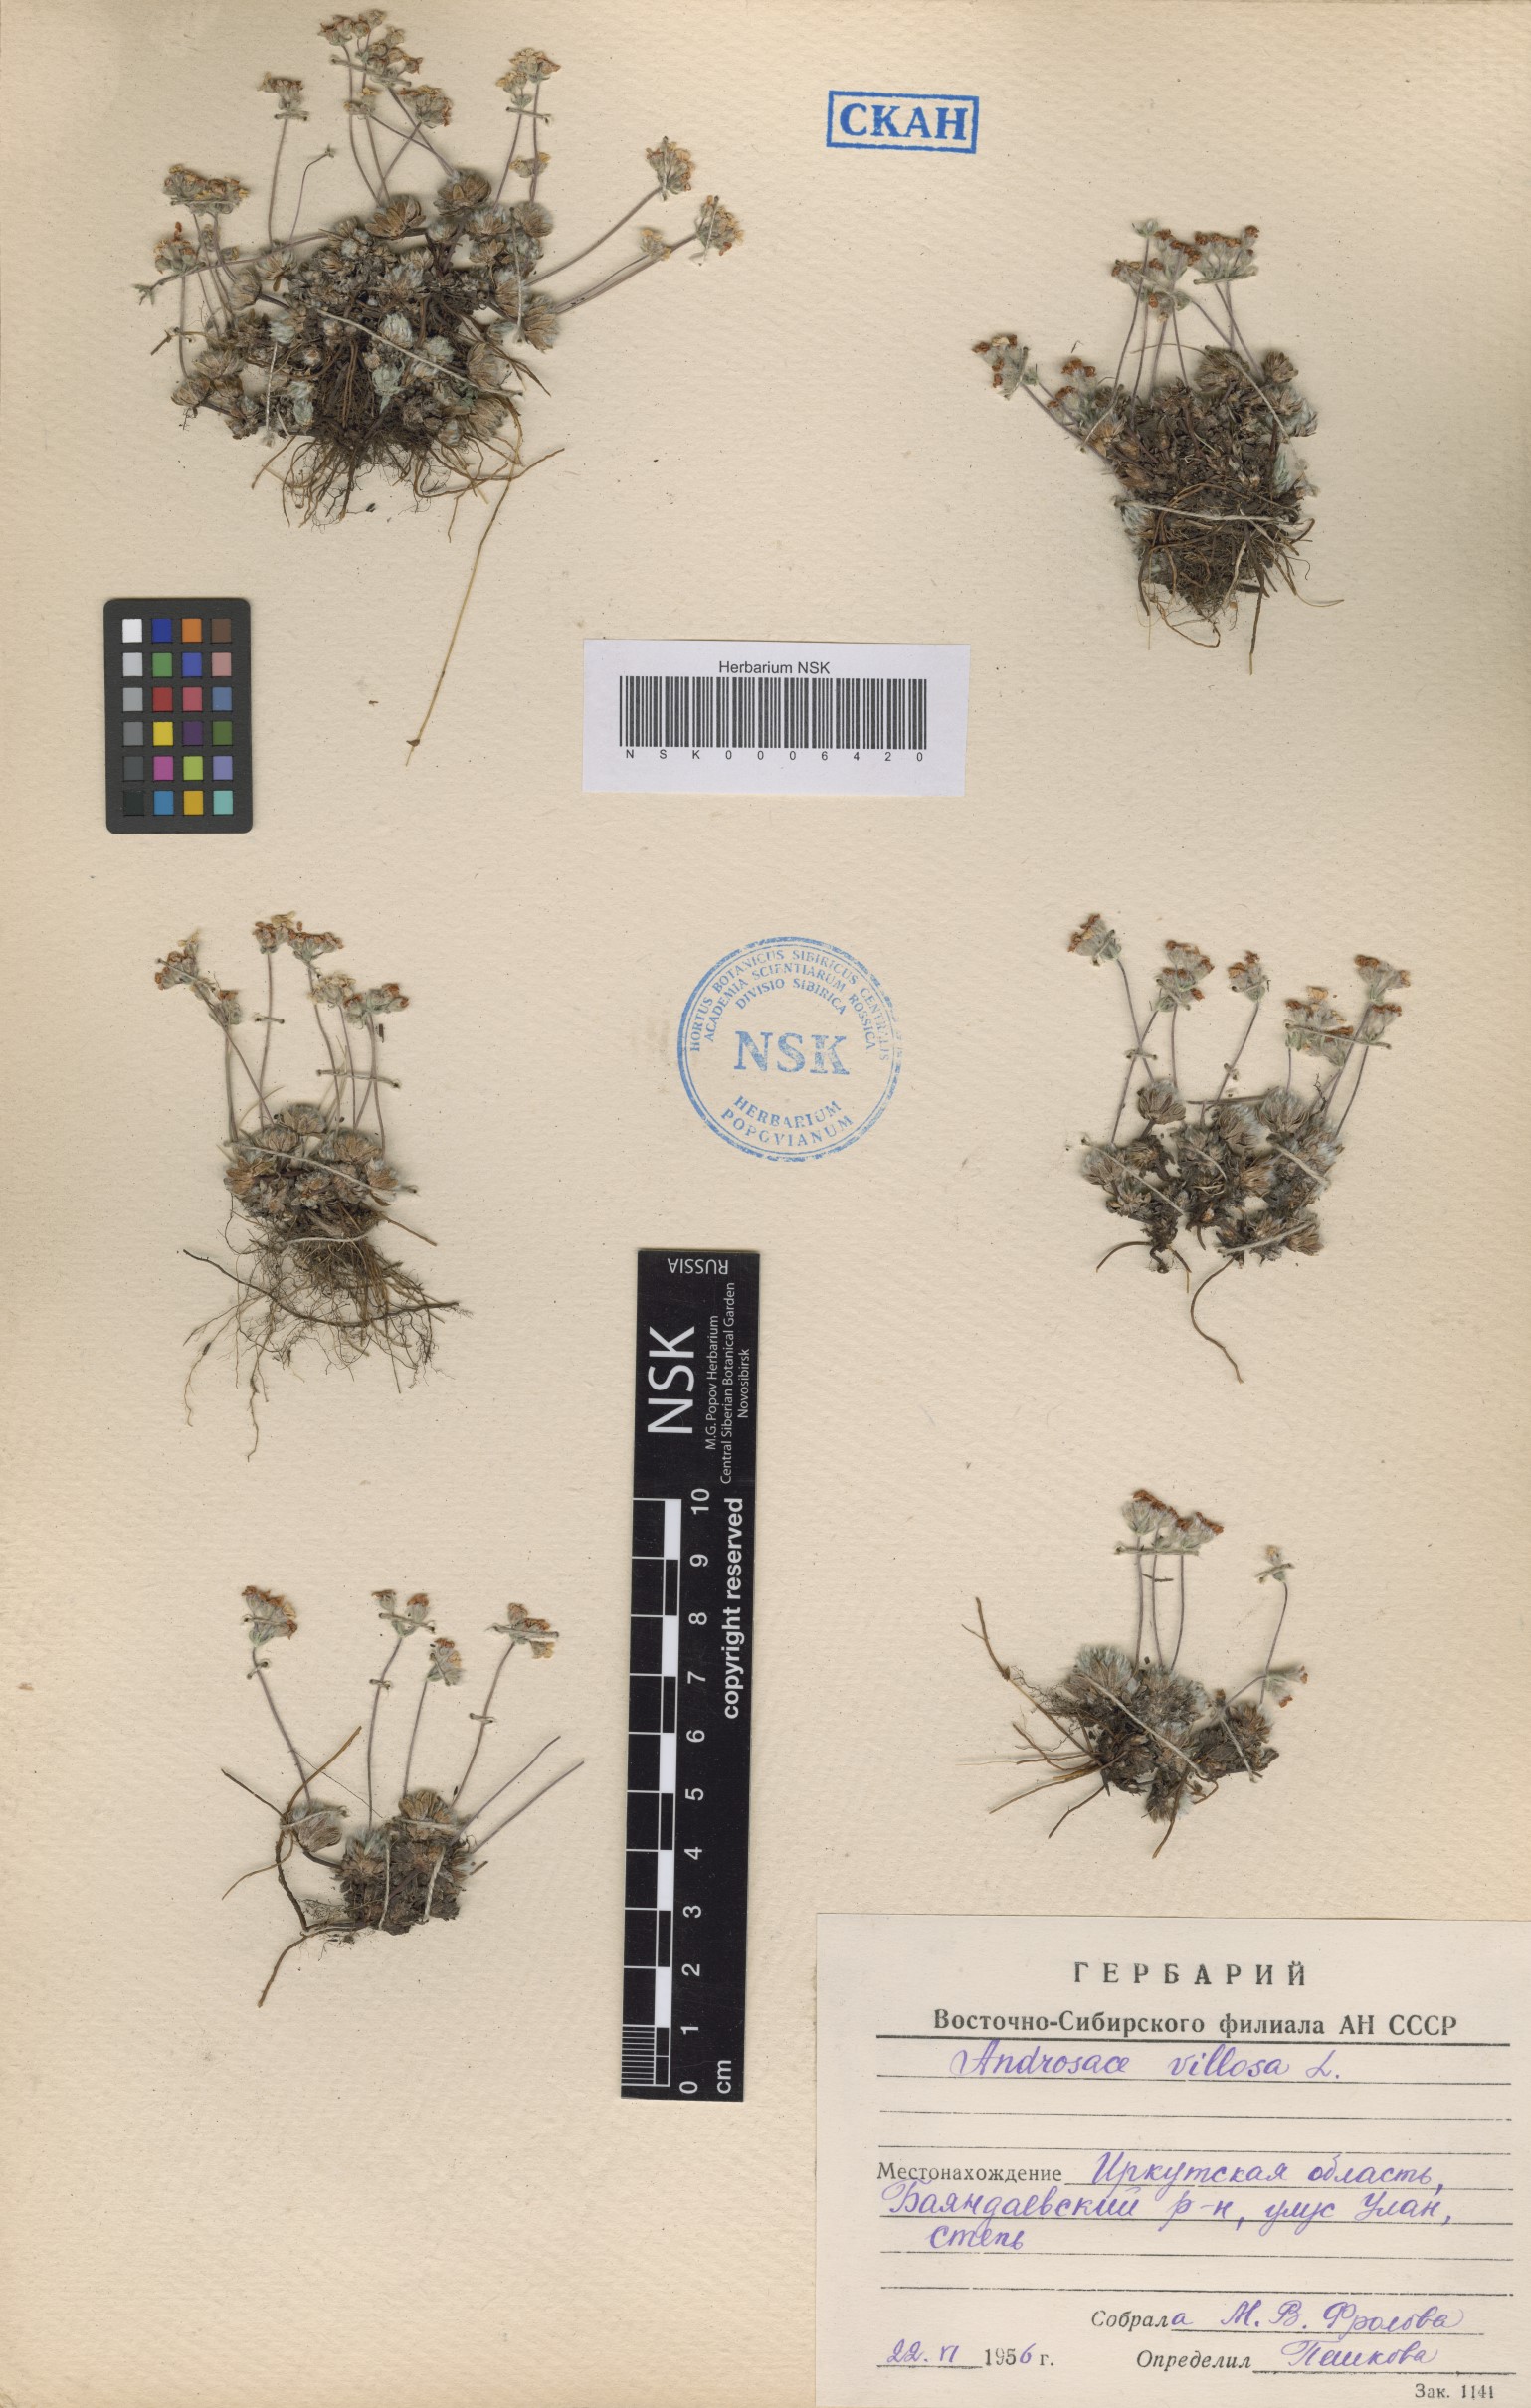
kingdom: Plantae
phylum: Tracheophyta
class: Magnoliopsida
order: Ericales
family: Primulaceae
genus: Androsace
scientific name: Androsace incana
